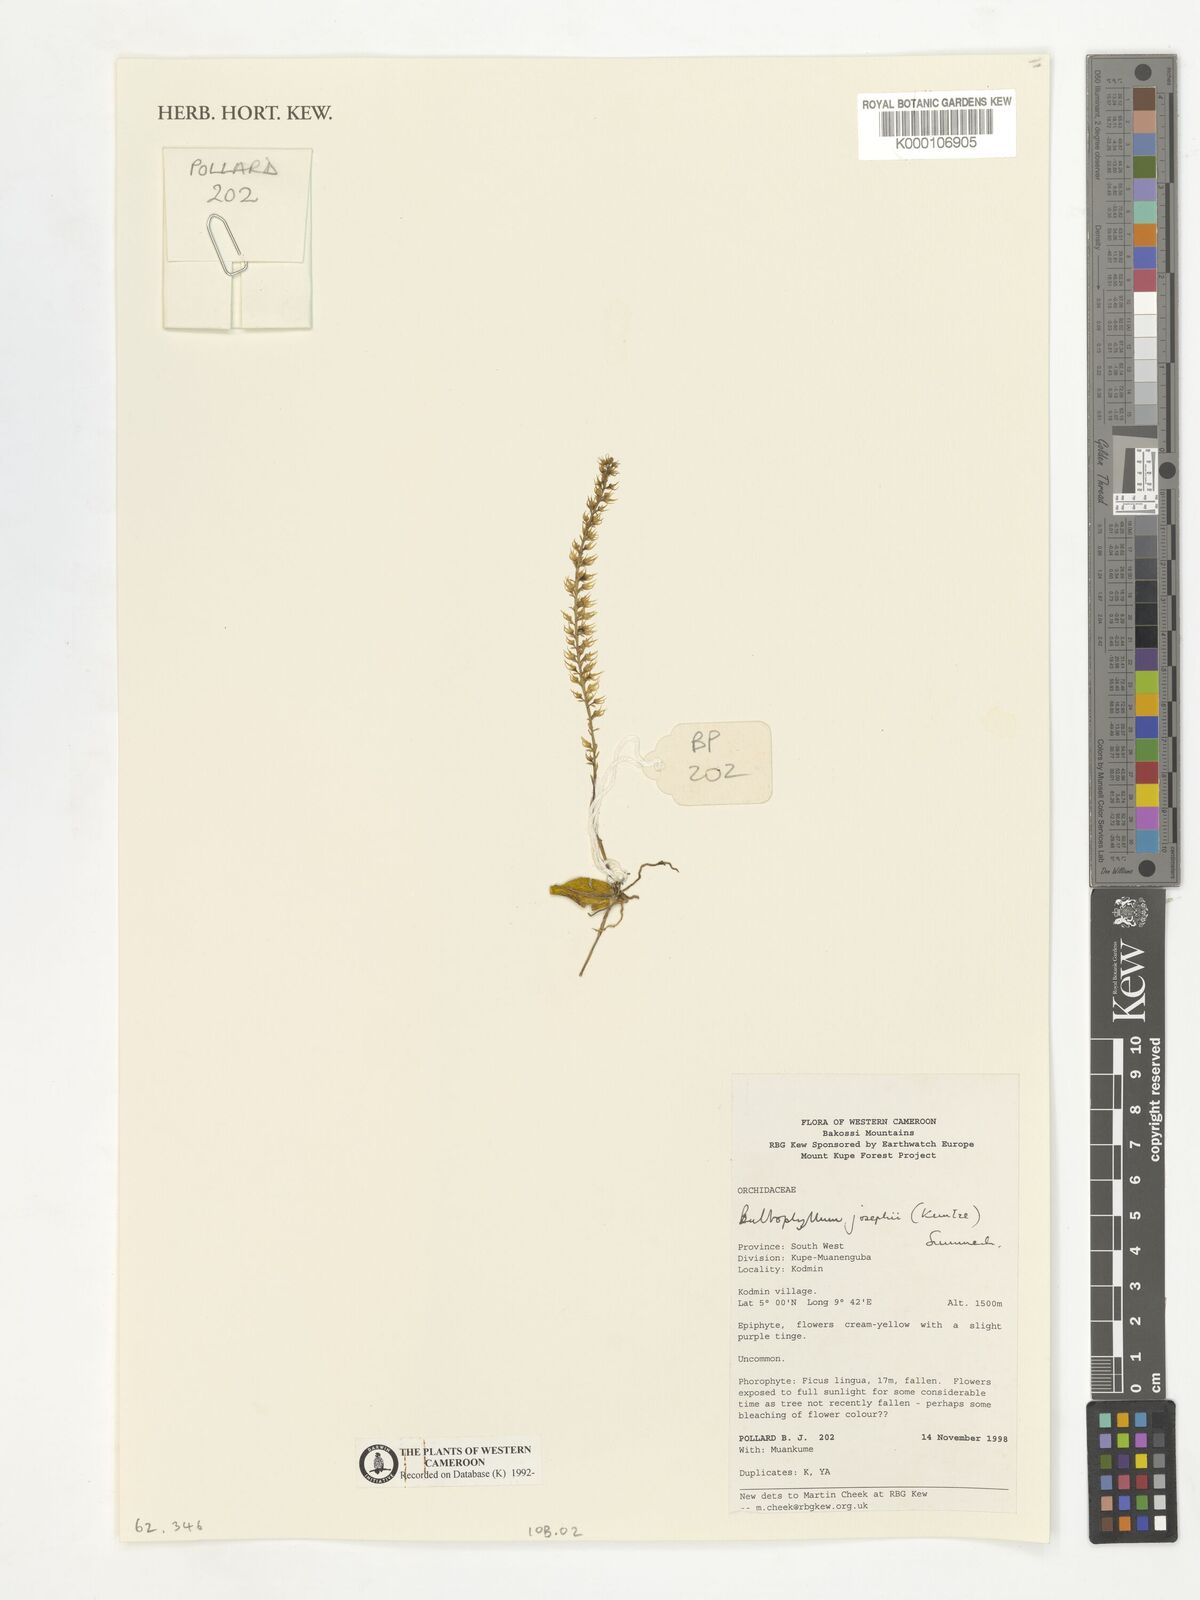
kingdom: Plantae
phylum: Tracheophyta
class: Liliopsida
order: Asparagales
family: Orchidaceae
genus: Bulbophyllum
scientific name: Bulbophyllum josephi
